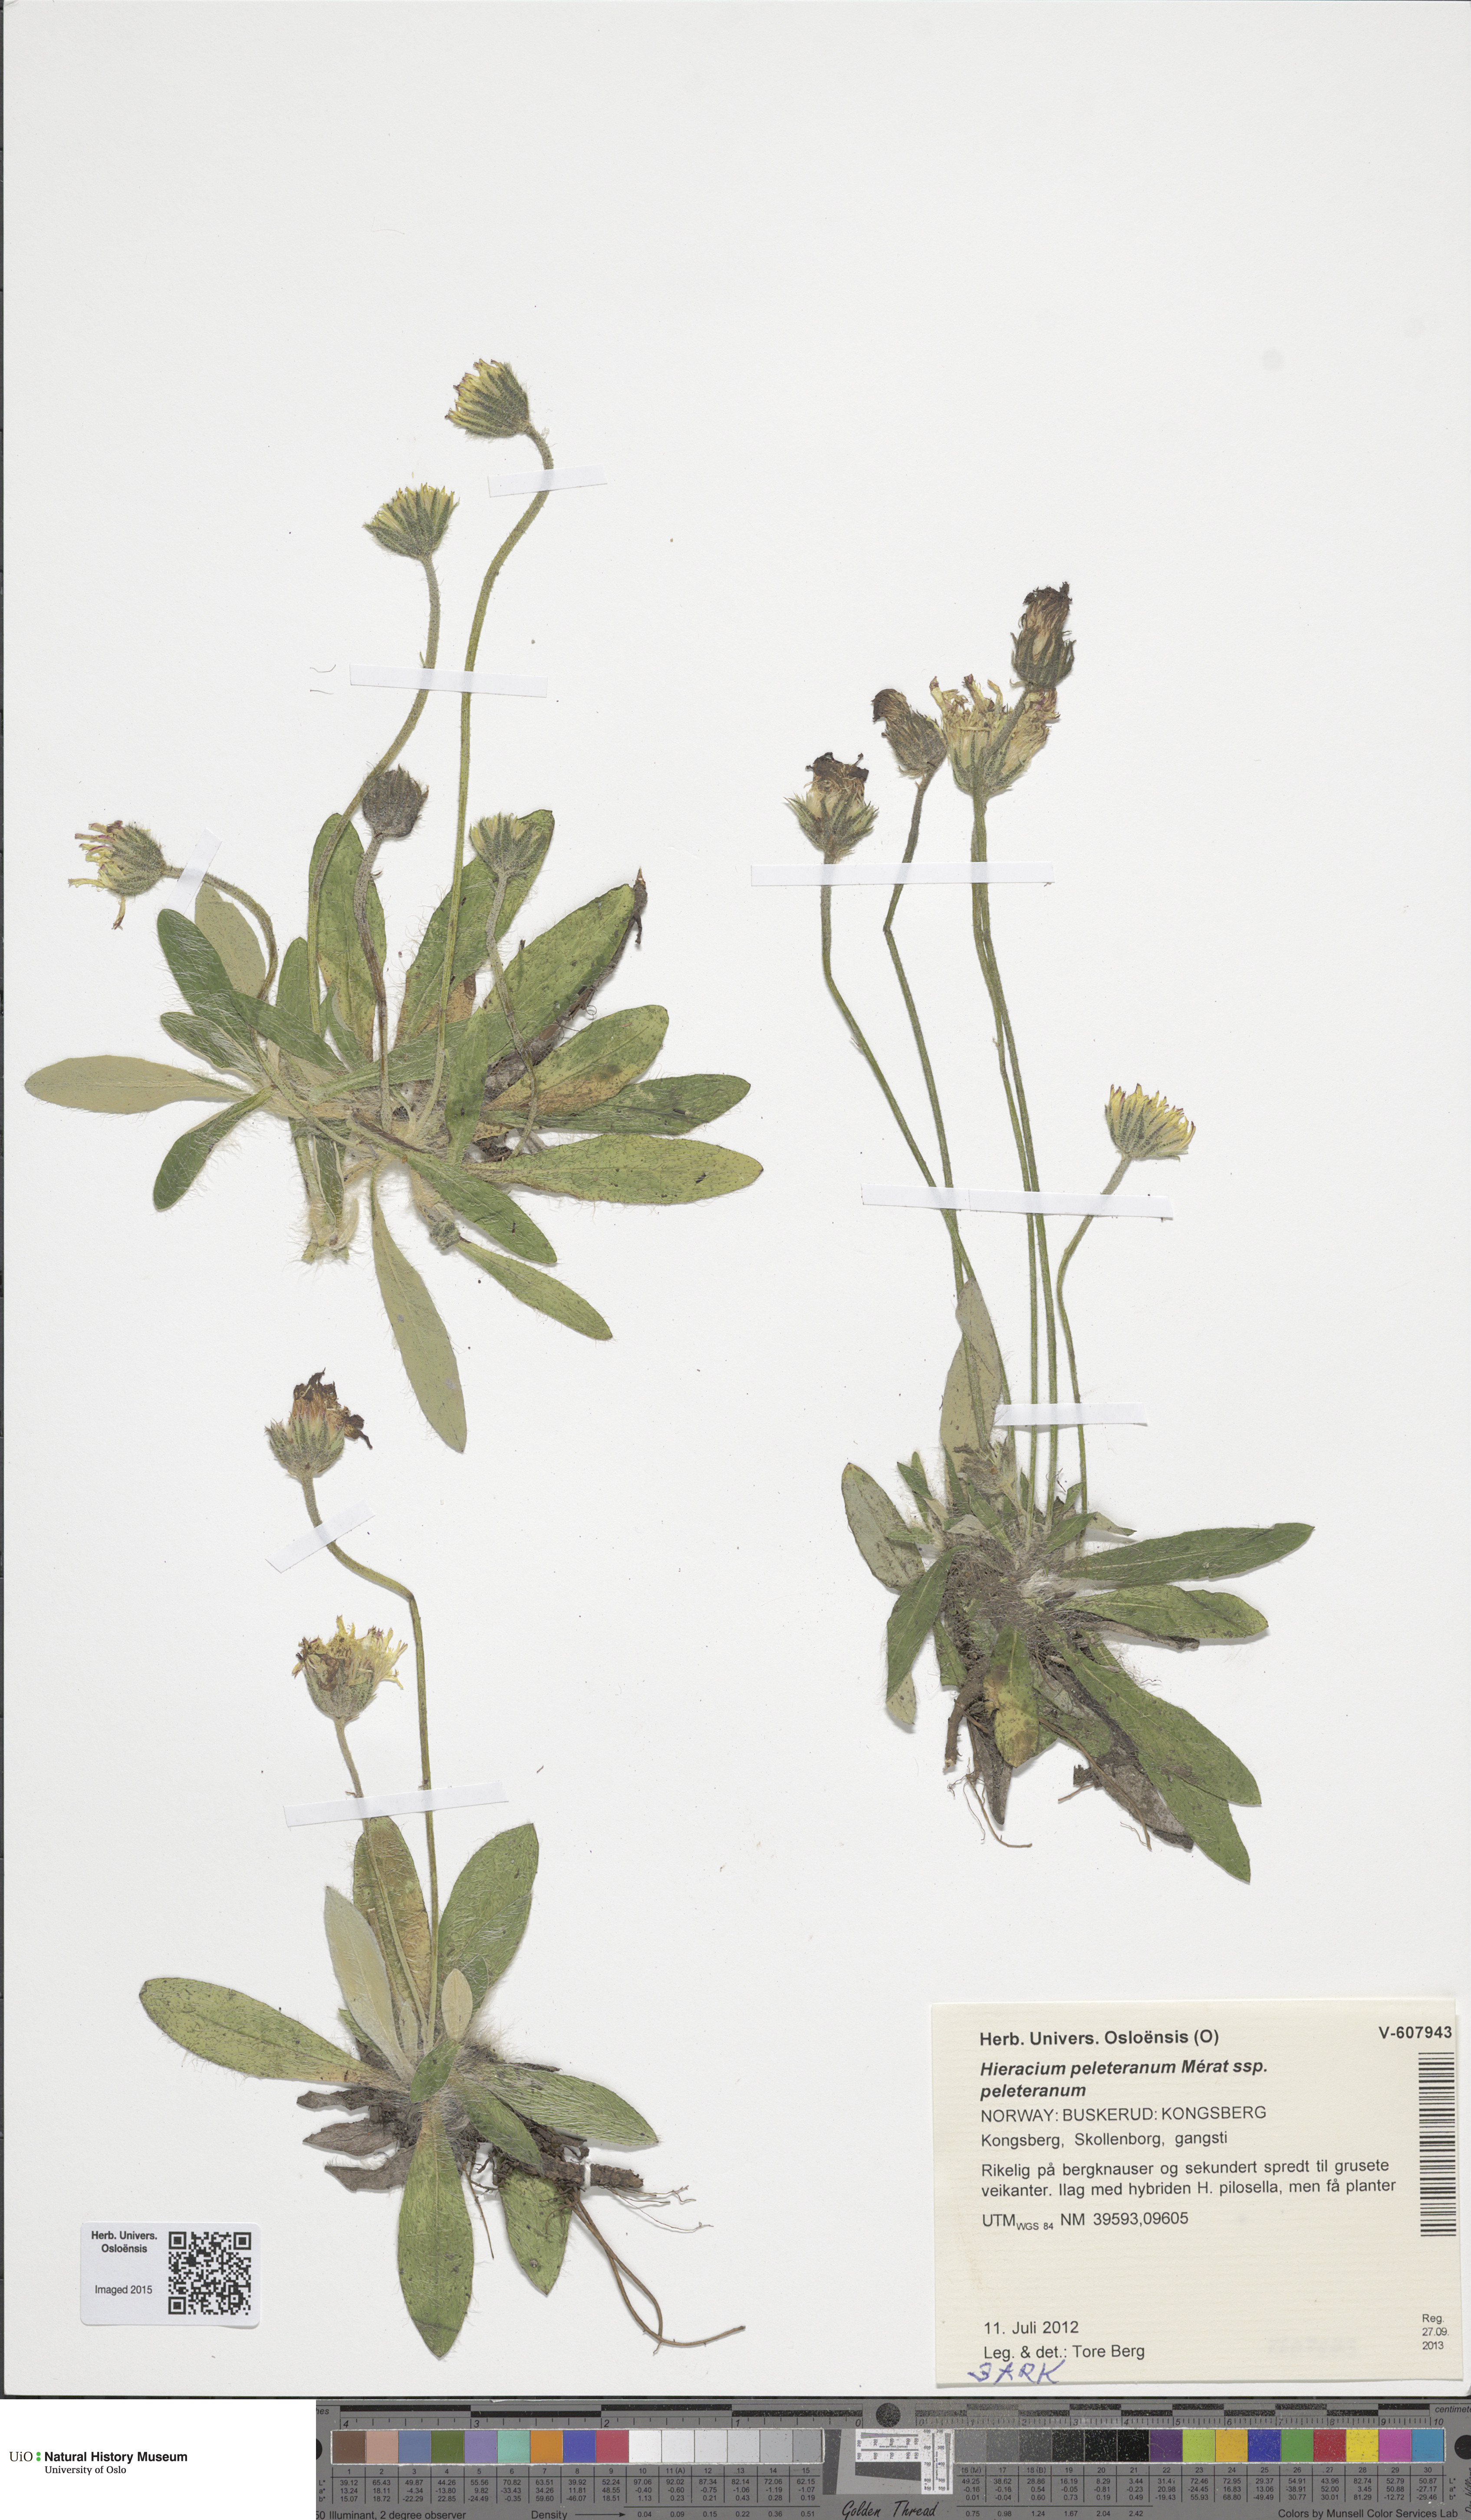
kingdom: Plantae
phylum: Tracheophyta
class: Magnoliopsida
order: Asterales
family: Asteraceae
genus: Pilosella
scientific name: Pilosella peleteriana
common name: Shaggy mouse-ear-hawkweed
